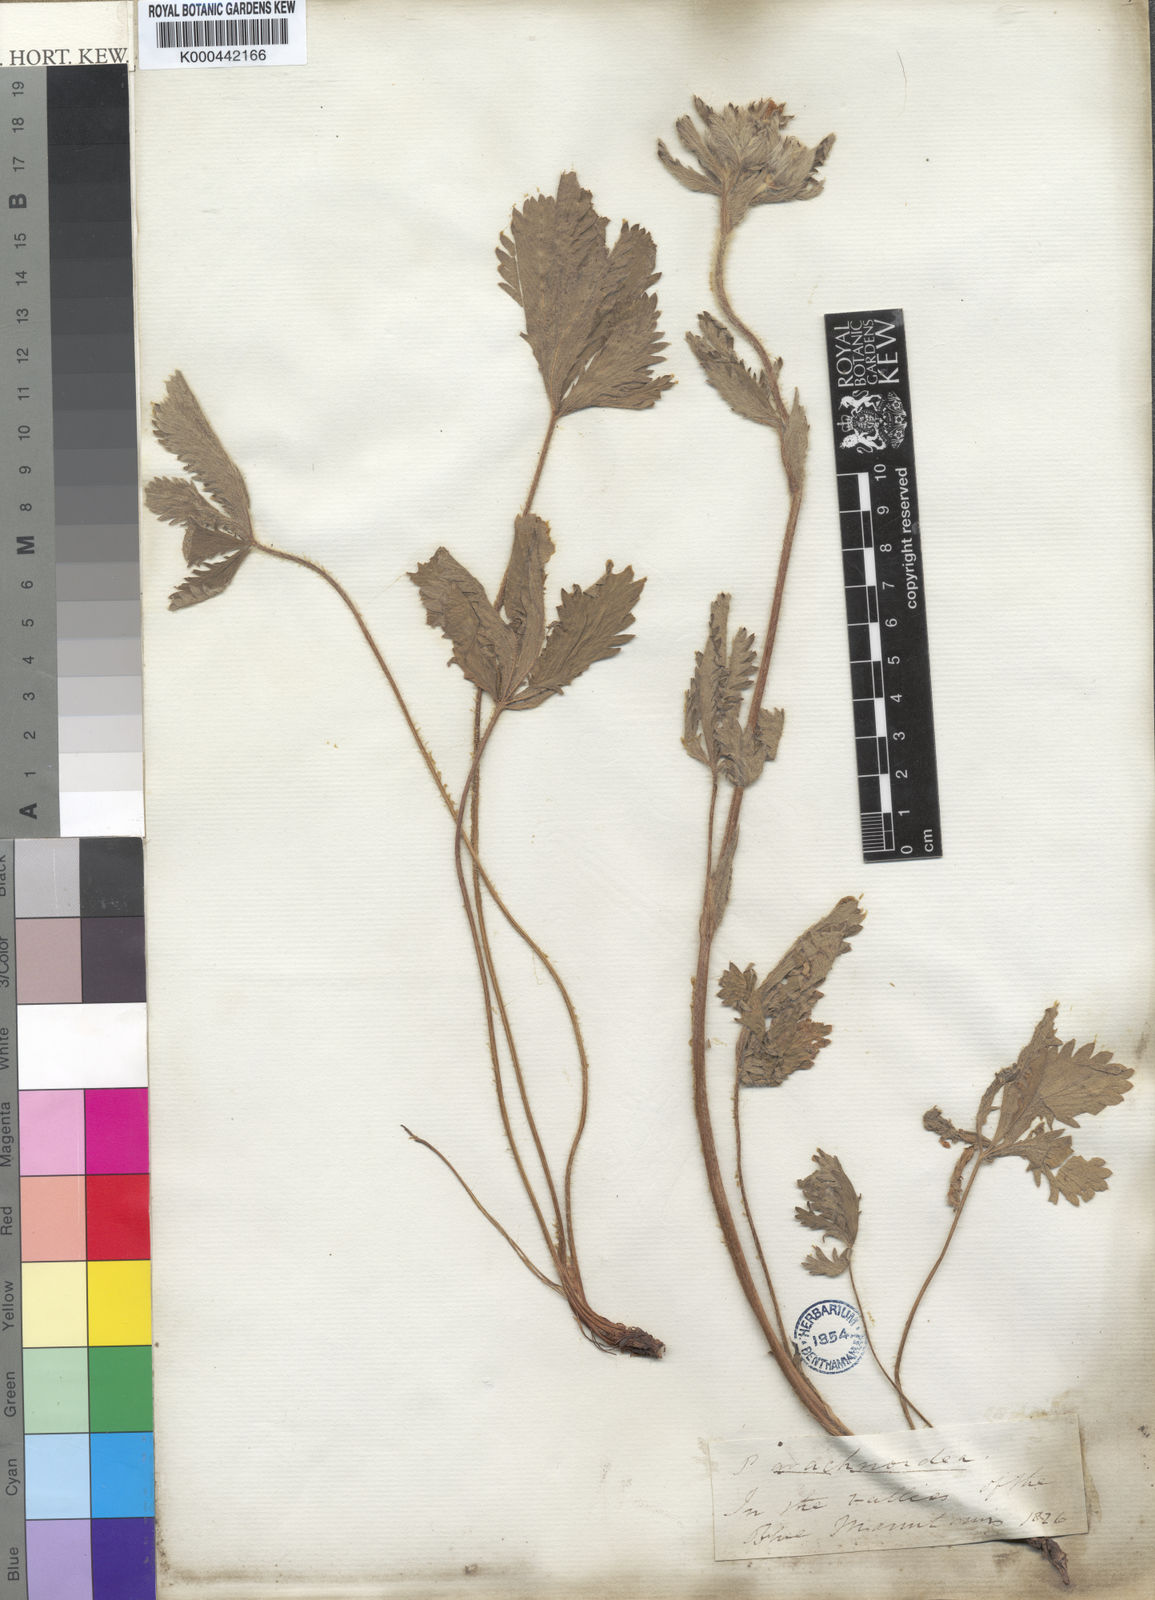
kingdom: Plantae
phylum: Tracheophyta
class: Magnoliopsida
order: Rosales
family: Rosaceae
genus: Potentilla
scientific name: Potentilla gracilis
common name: Graceful cinquefoil
